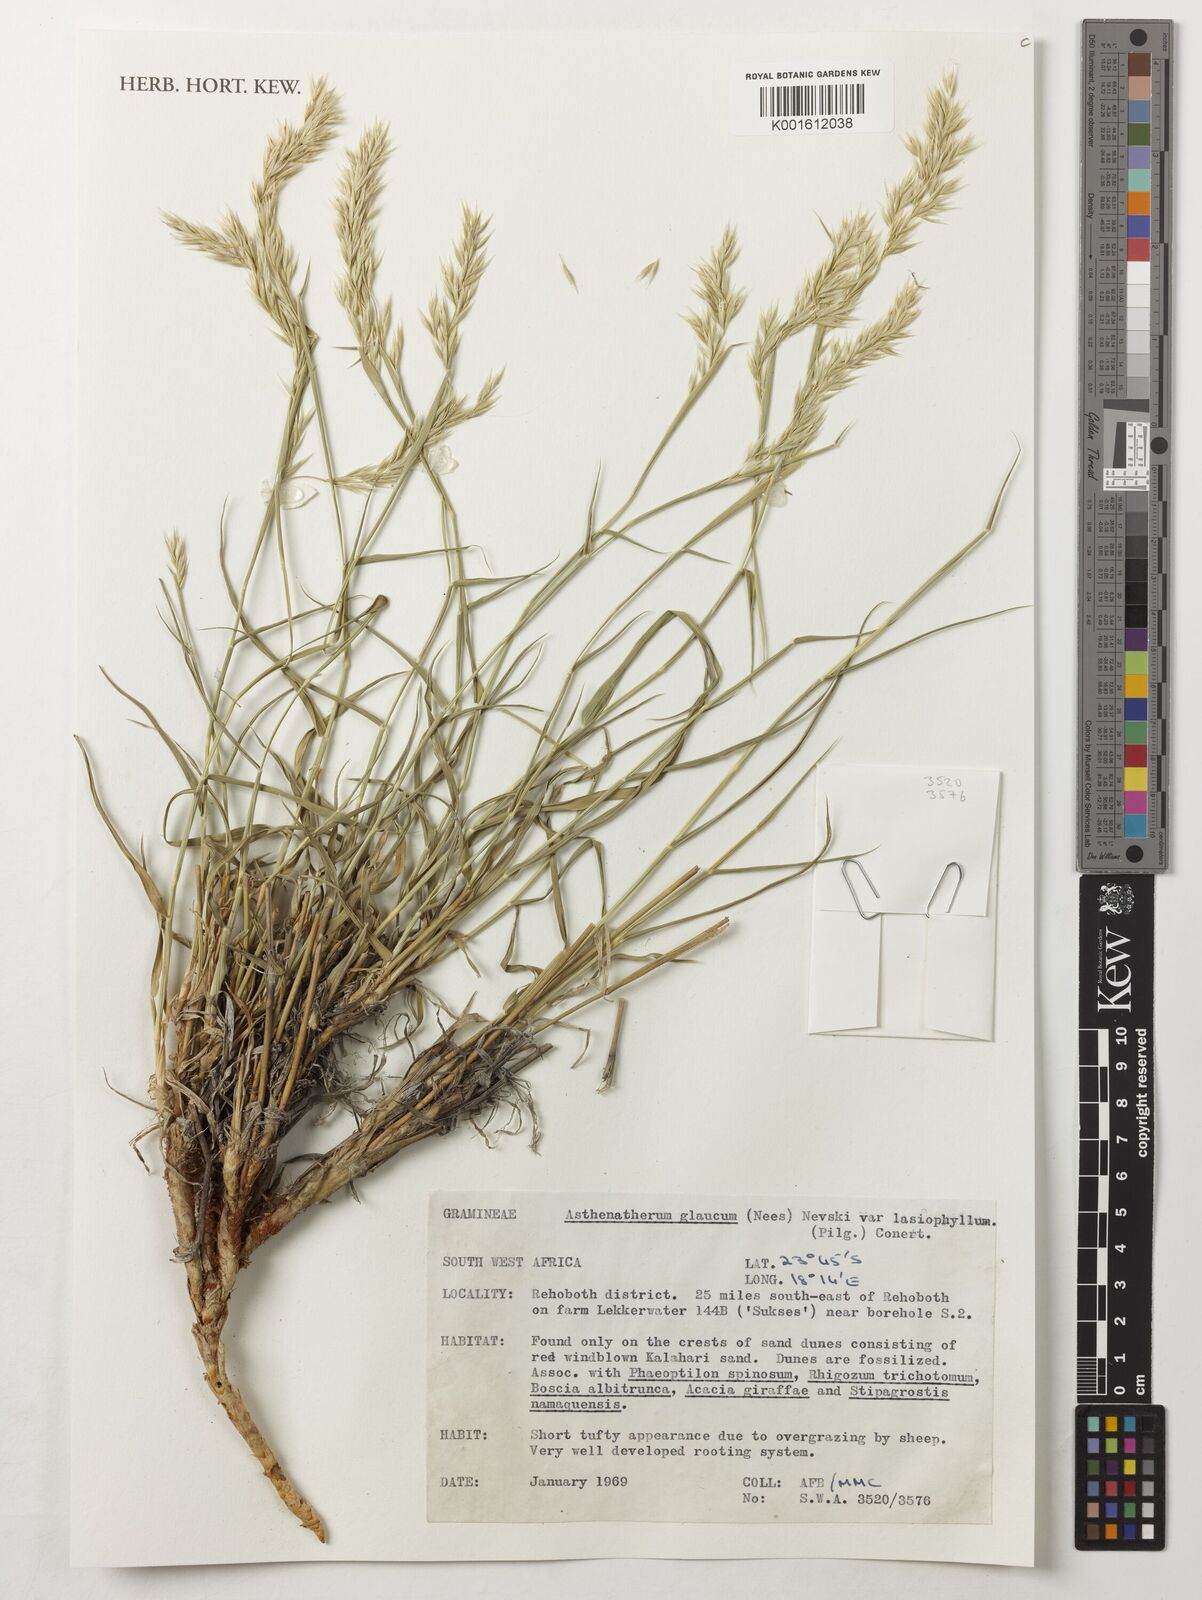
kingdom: Plantae
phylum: Tracheophyta
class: Liliopsida
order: Poales
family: Poaceae
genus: Centropodia
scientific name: Centropodia glauca
